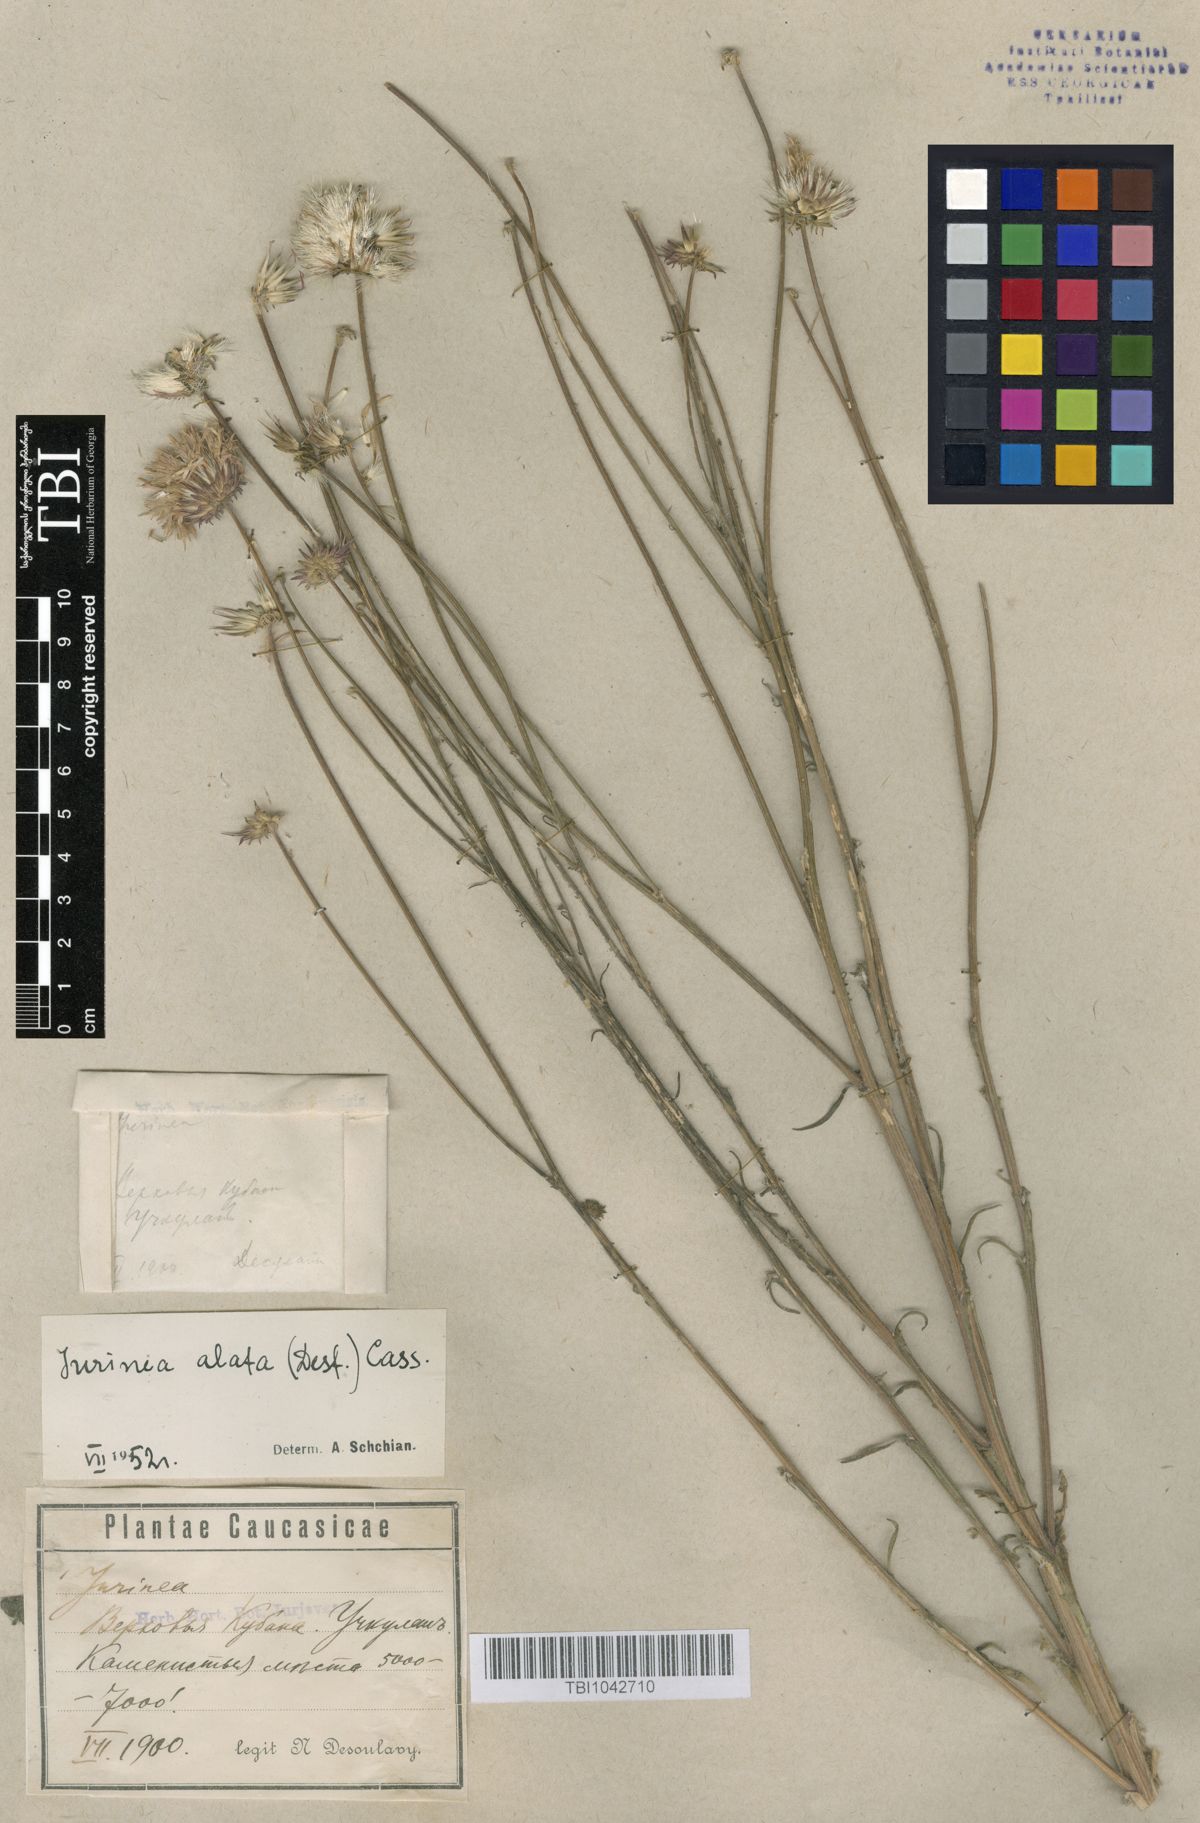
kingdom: Plantae
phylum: Tracheophyta
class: Magnoliopsida
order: Asterales
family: Asteraceae
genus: Jurinea
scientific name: Jurinea alata
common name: Winged jurinea
